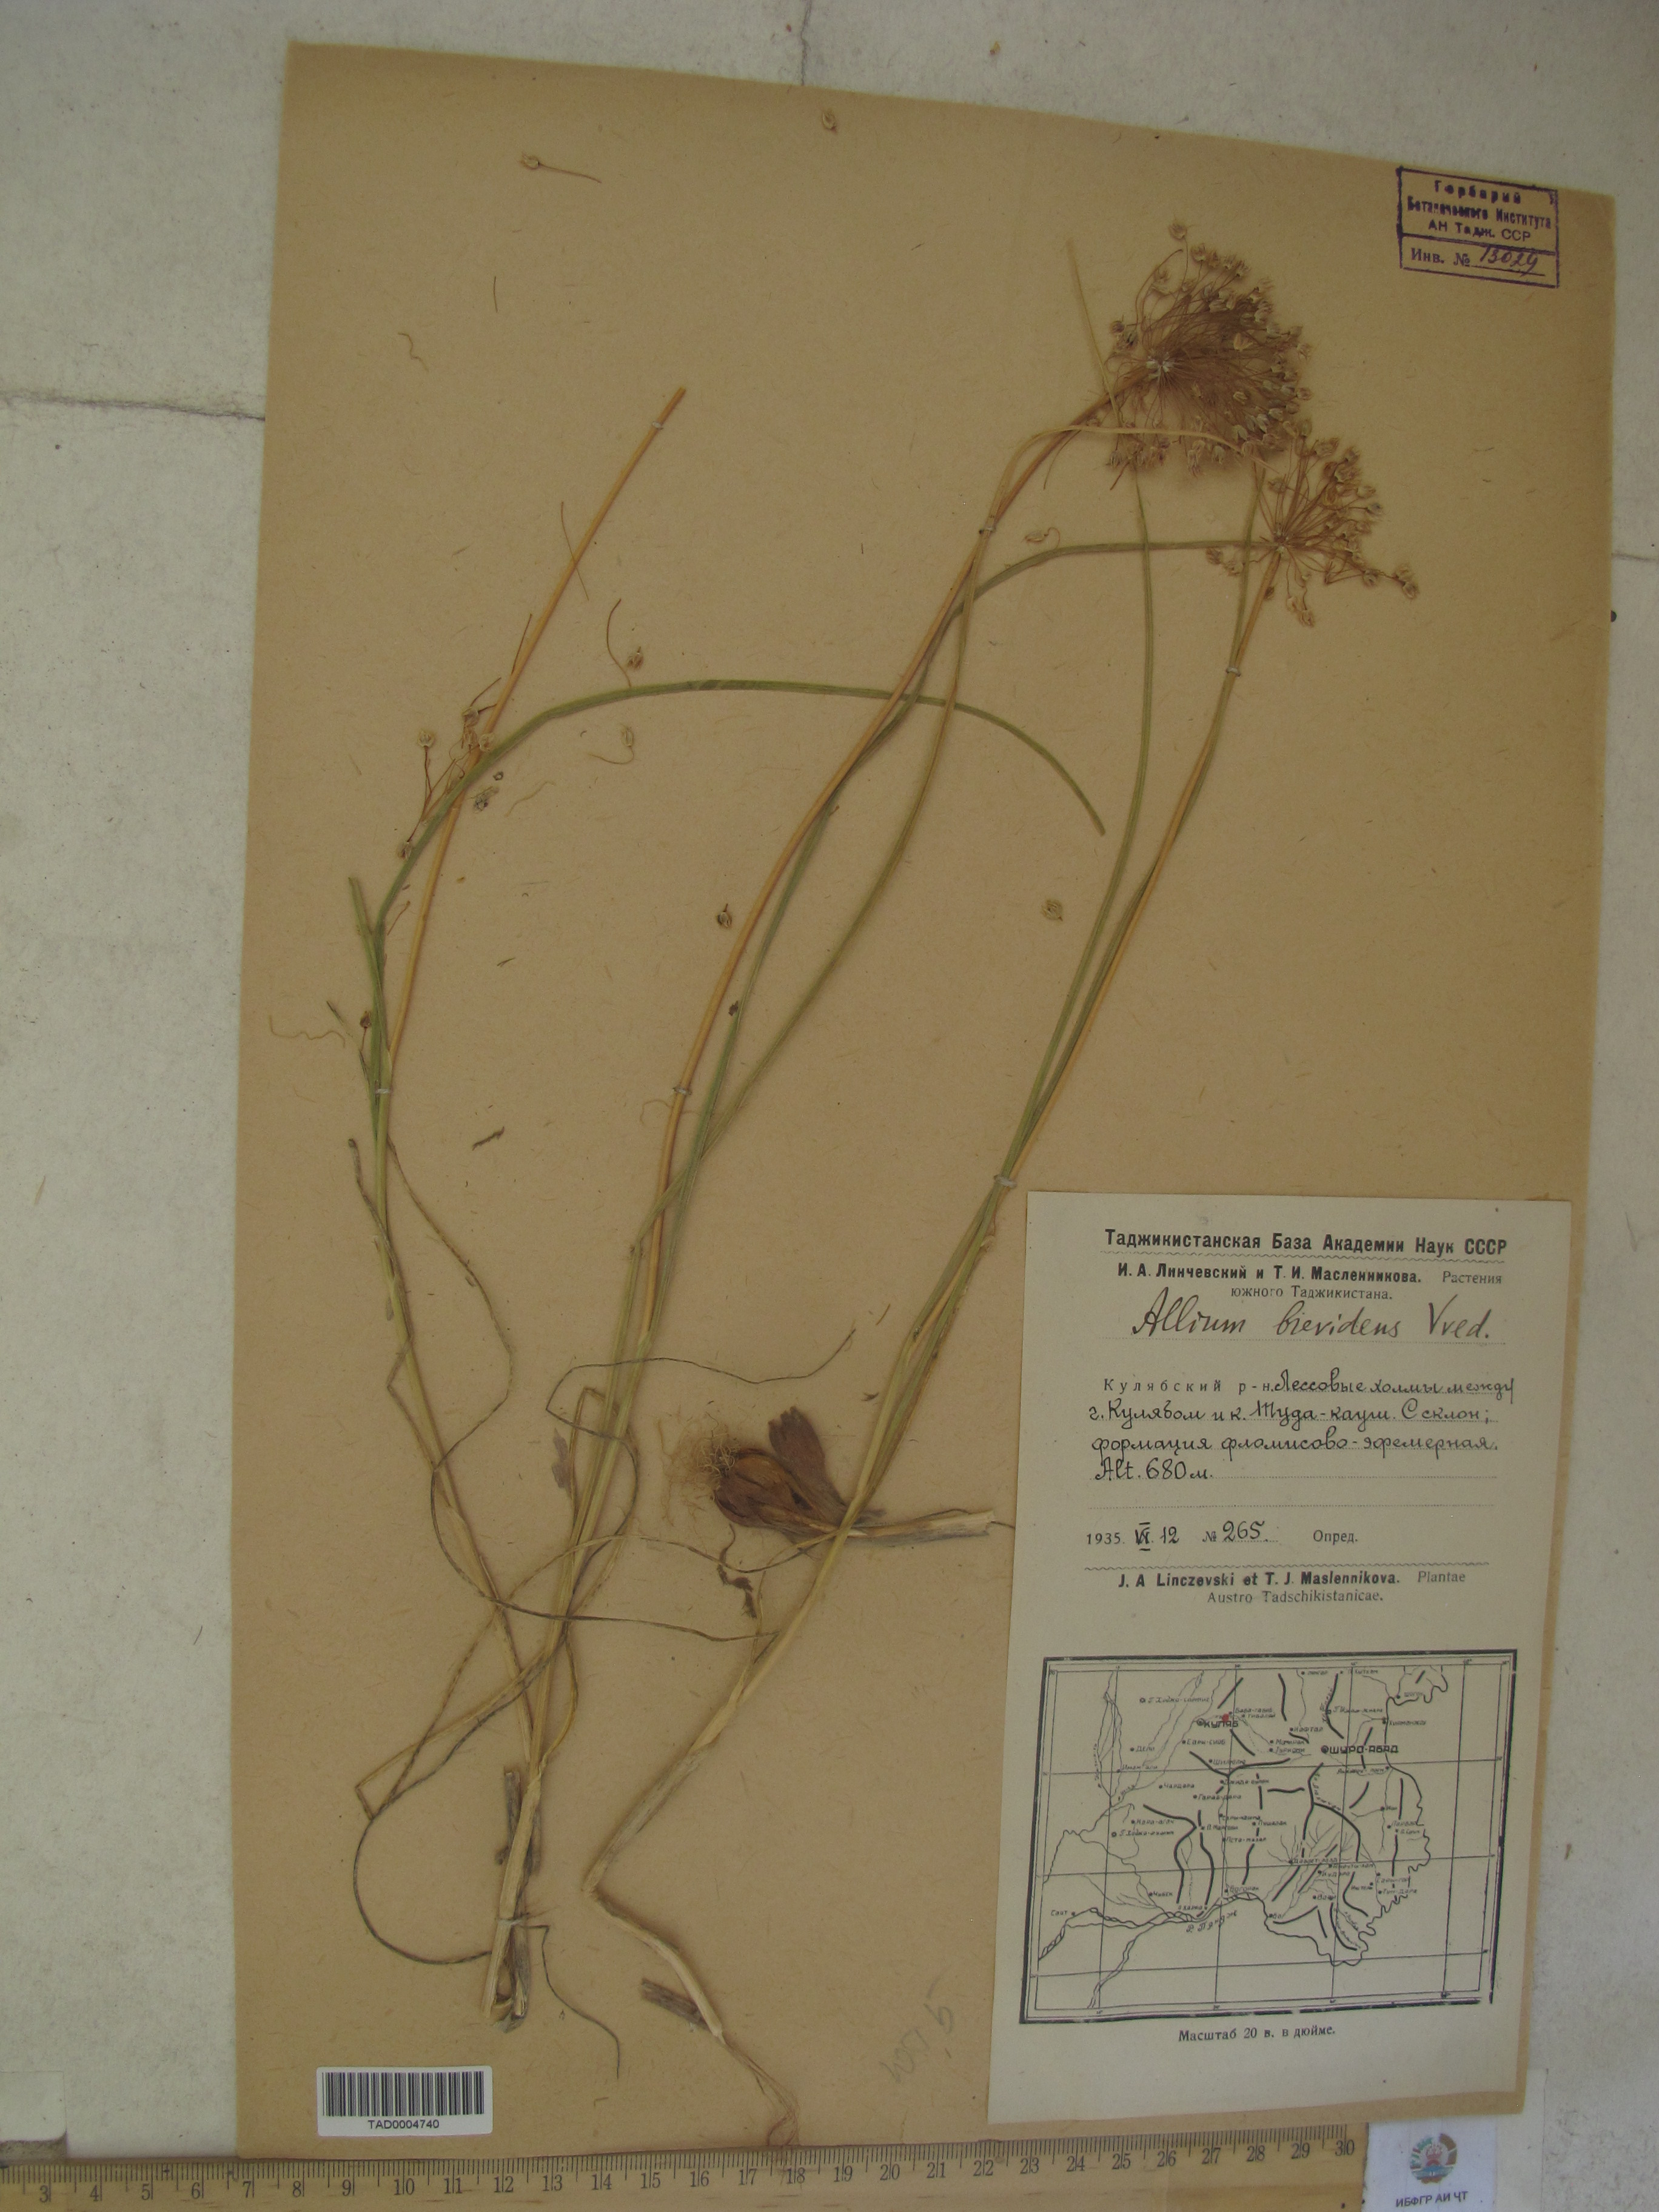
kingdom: Plantae
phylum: Tracheophyta
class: Liliopsida
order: Asparagales
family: Amaryllidaceae
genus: Allium
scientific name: Allium brevidens
